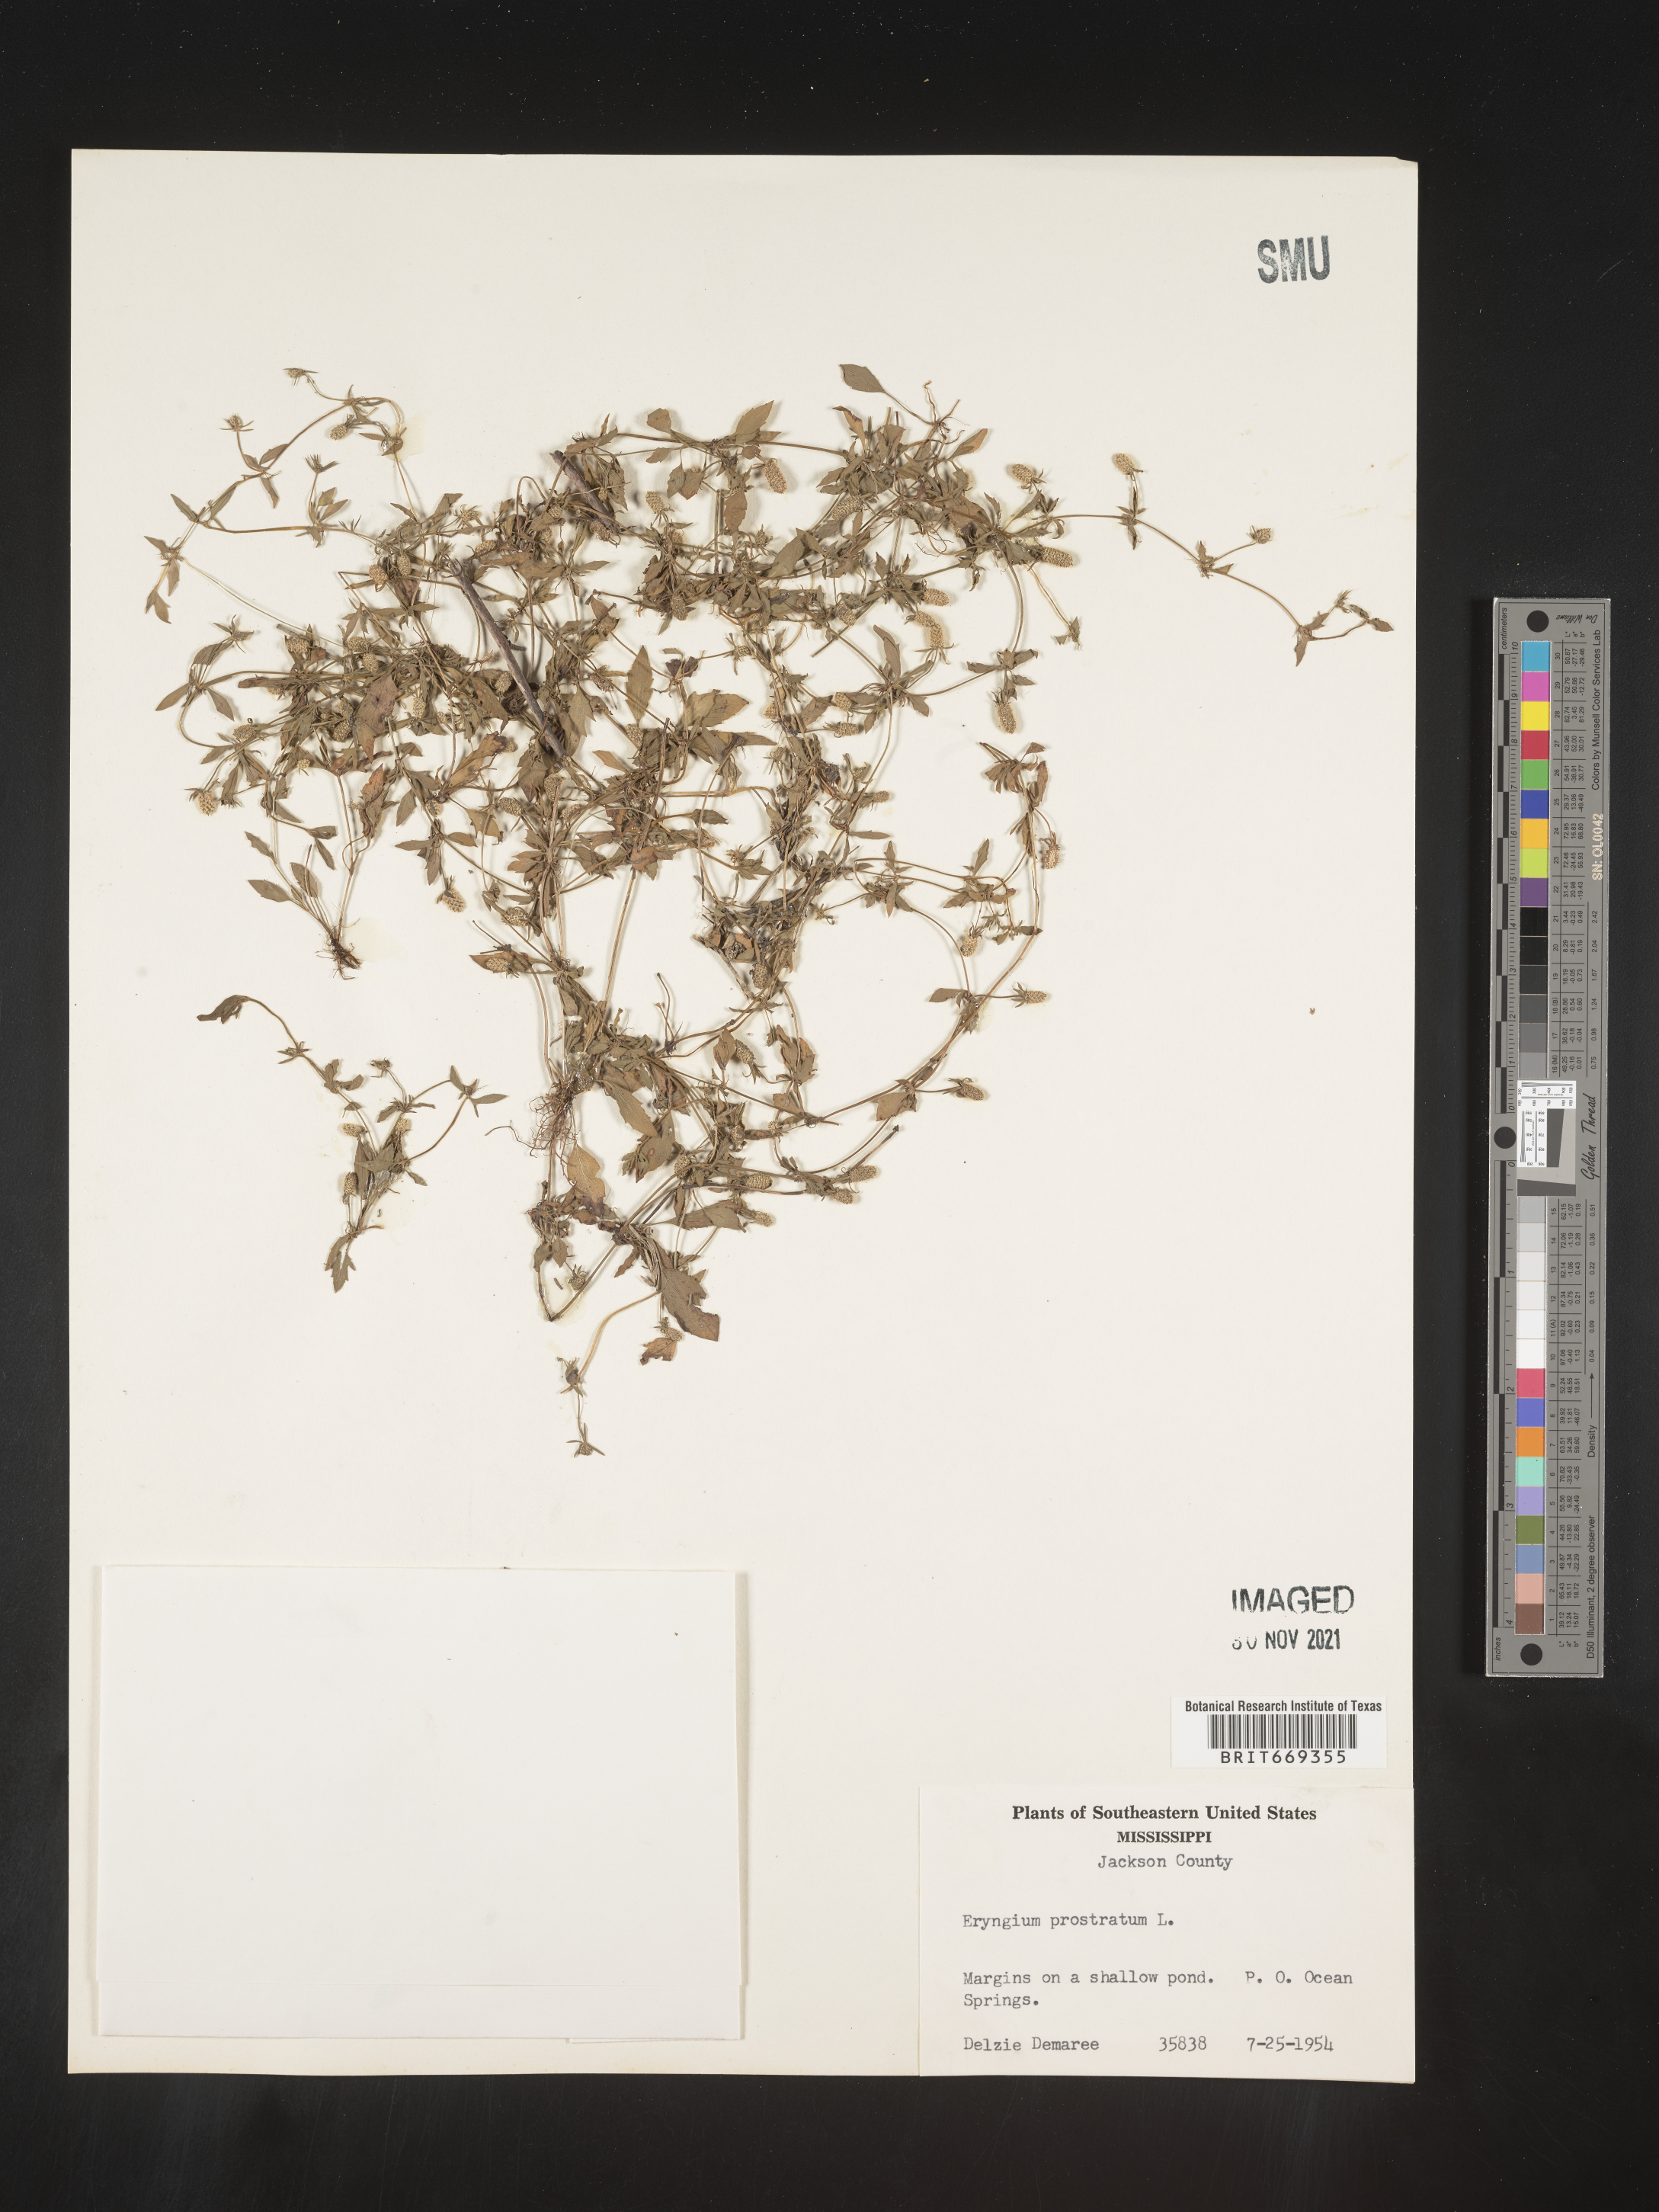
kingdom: Plantae
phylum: Tracheophyta
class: Magnoliopsida
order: Apiales
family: Apiaceae
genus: Eryngium
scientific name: Eryngium prostratum
